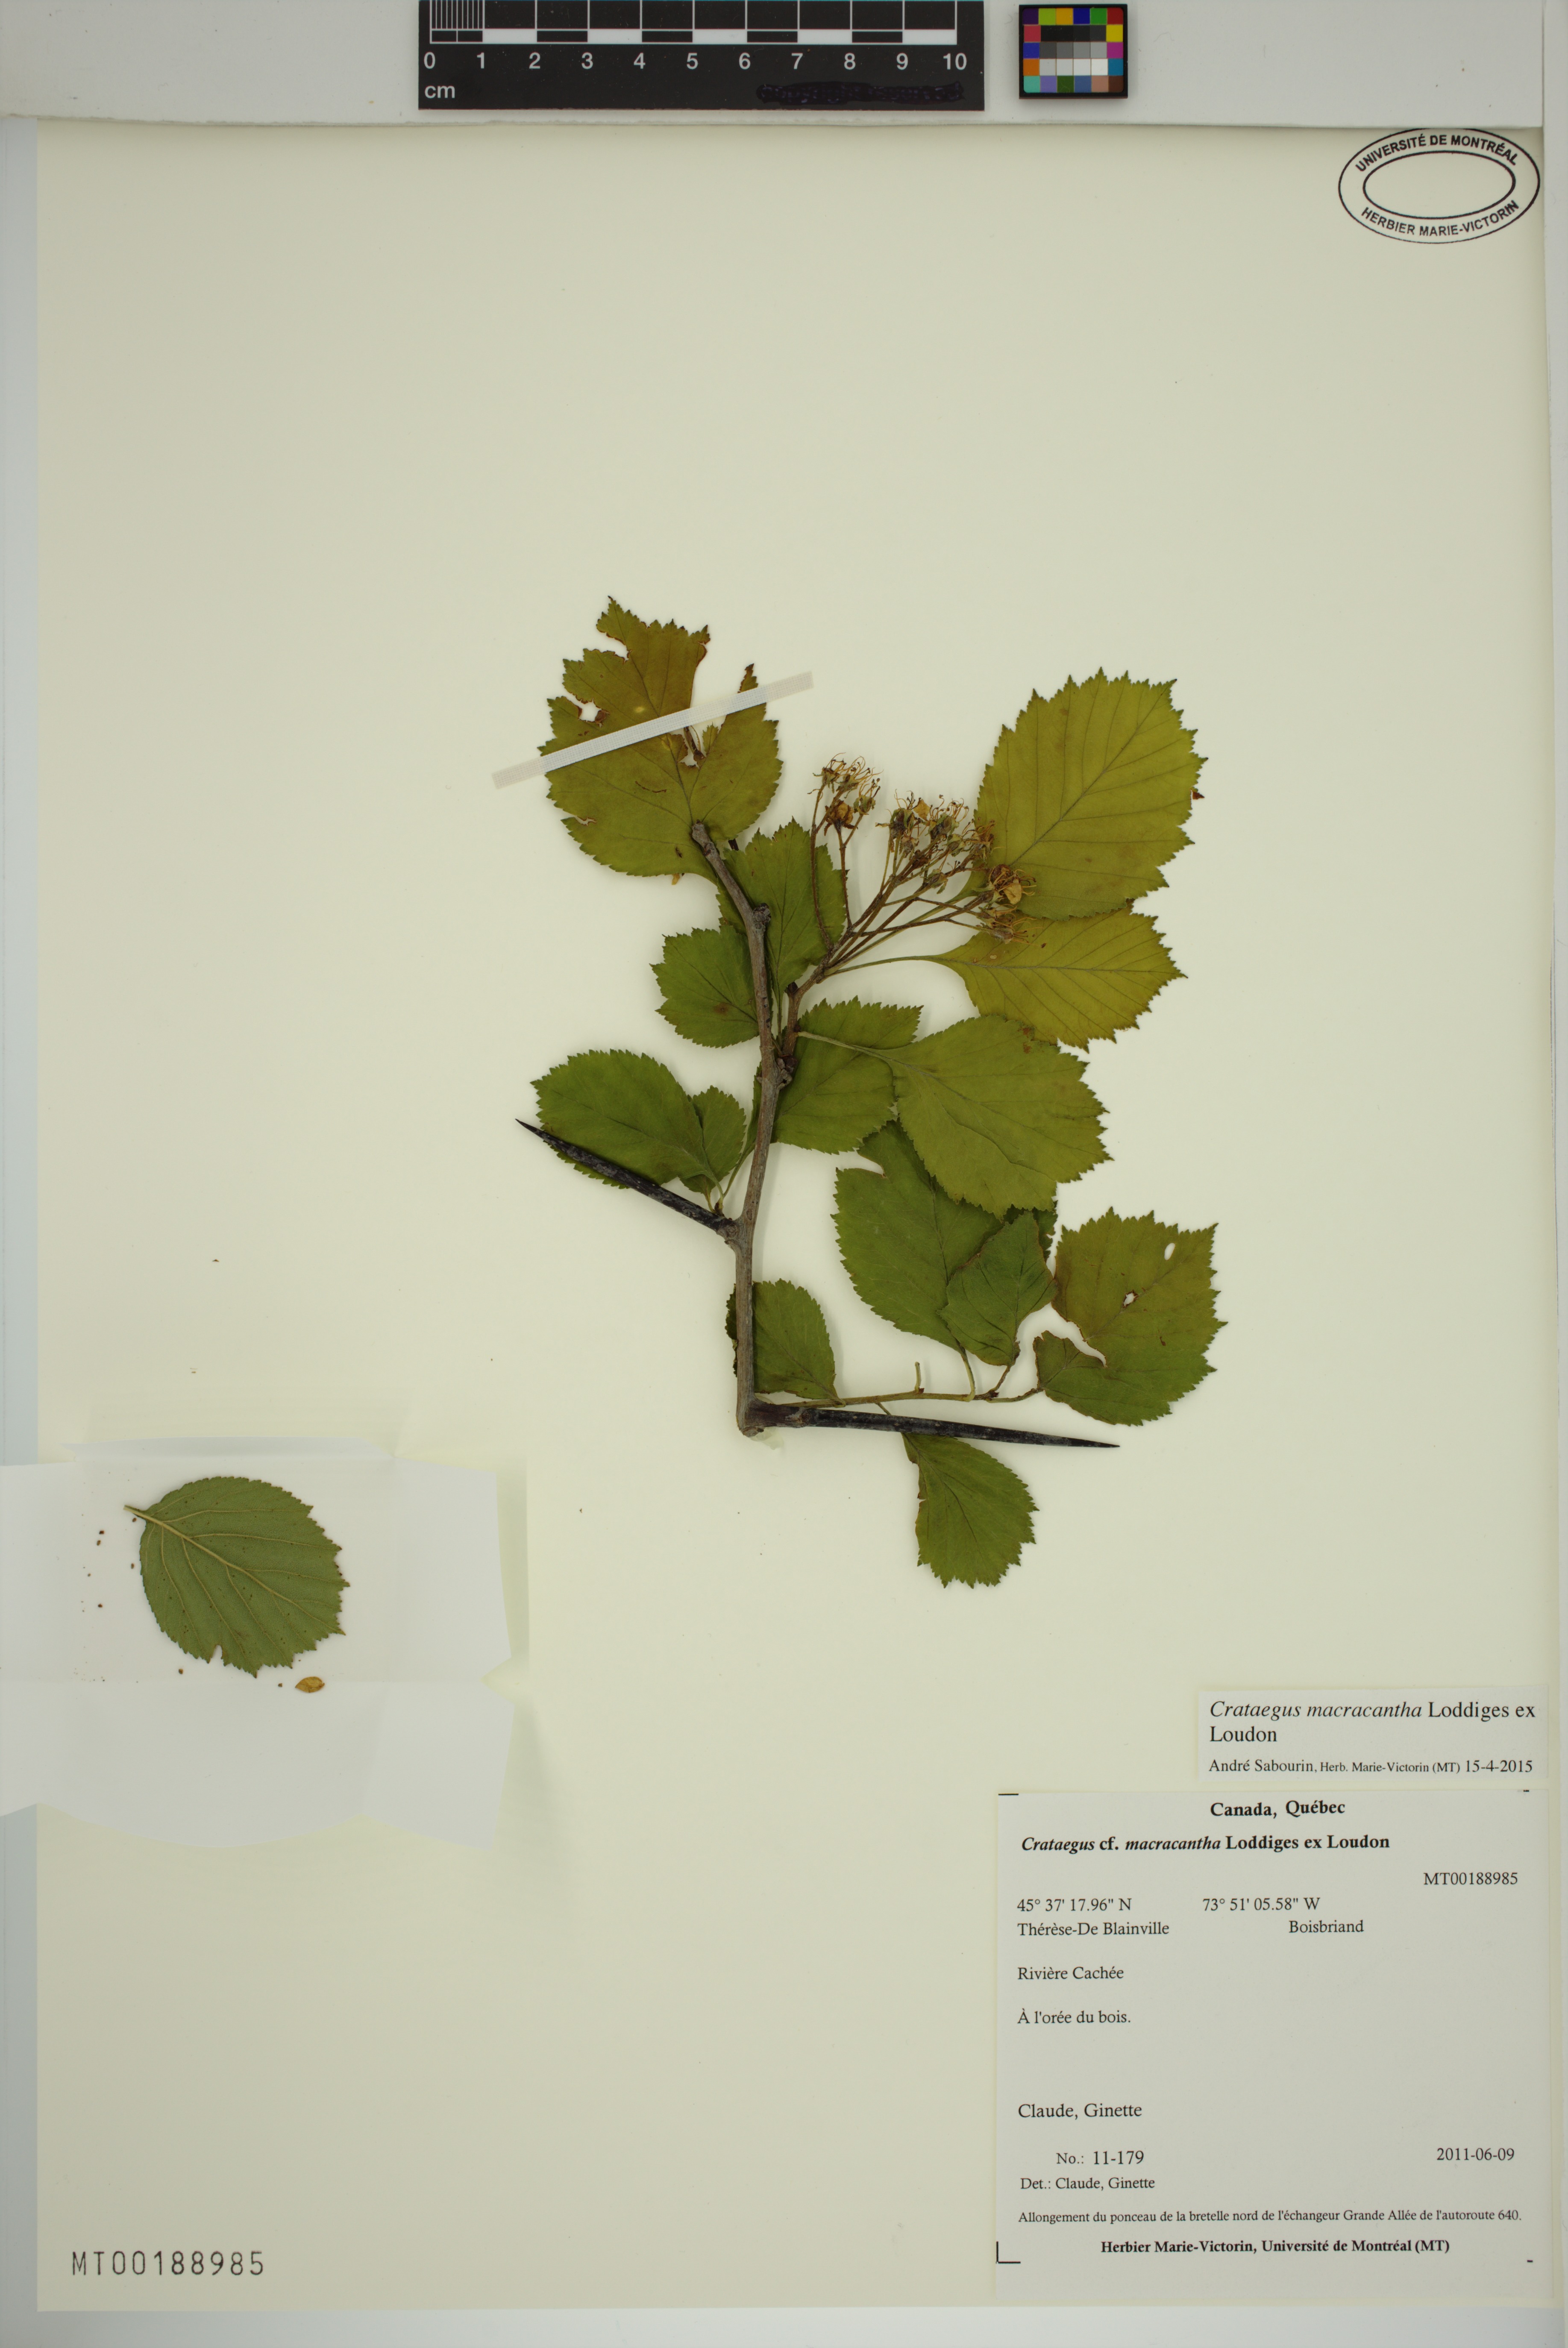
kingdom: Plantae
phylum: Tracheophyta
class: Magnoliopsida
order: Rosales
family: Rosaceae
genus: Crataegus
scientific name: Crataegus macracantha
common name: Large-thorn hawthorn
